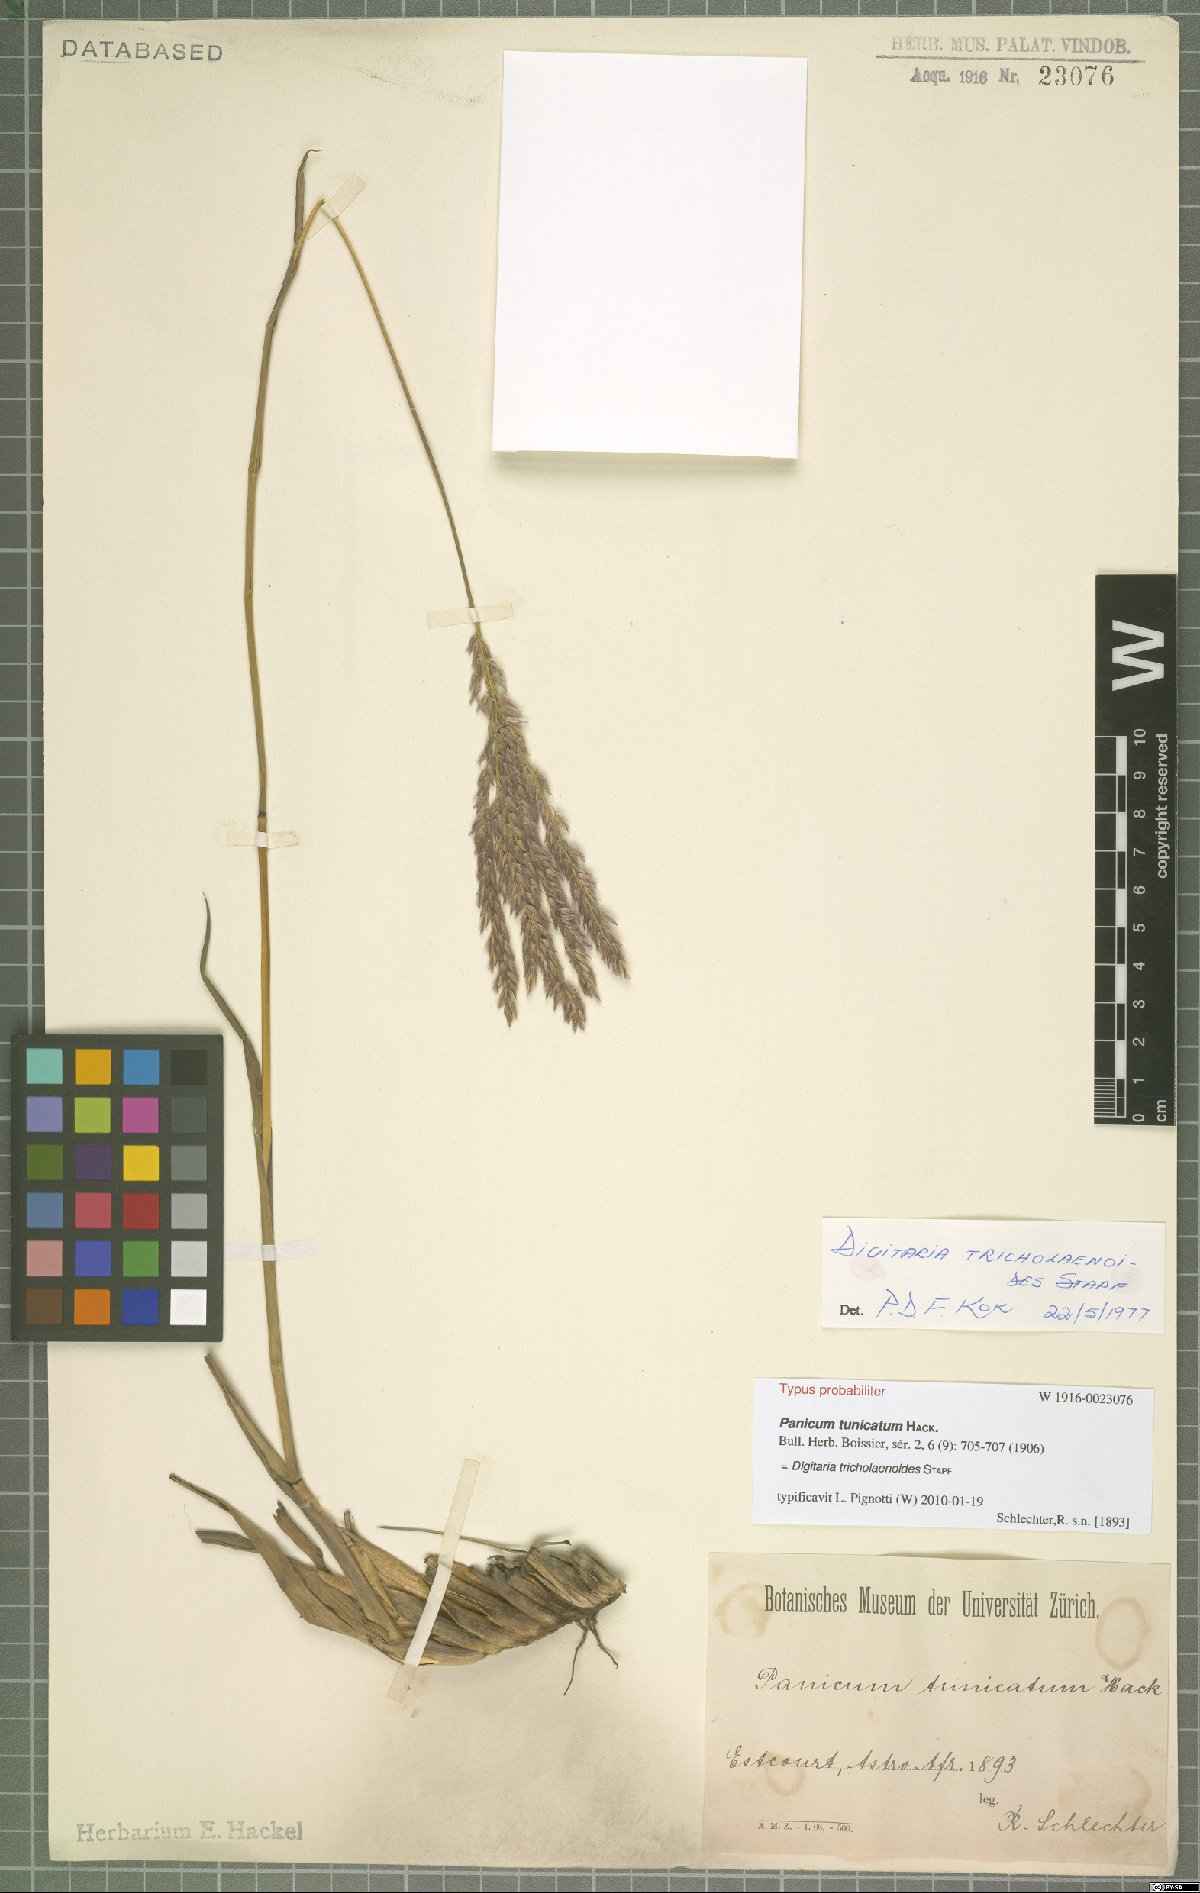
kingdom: Plantae
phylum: Tracheophyta
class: Liliopsida
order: Poales
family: Poaceae
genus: Digitaria
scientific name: Digitaria tricholaenoides
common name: Purple finger grass
